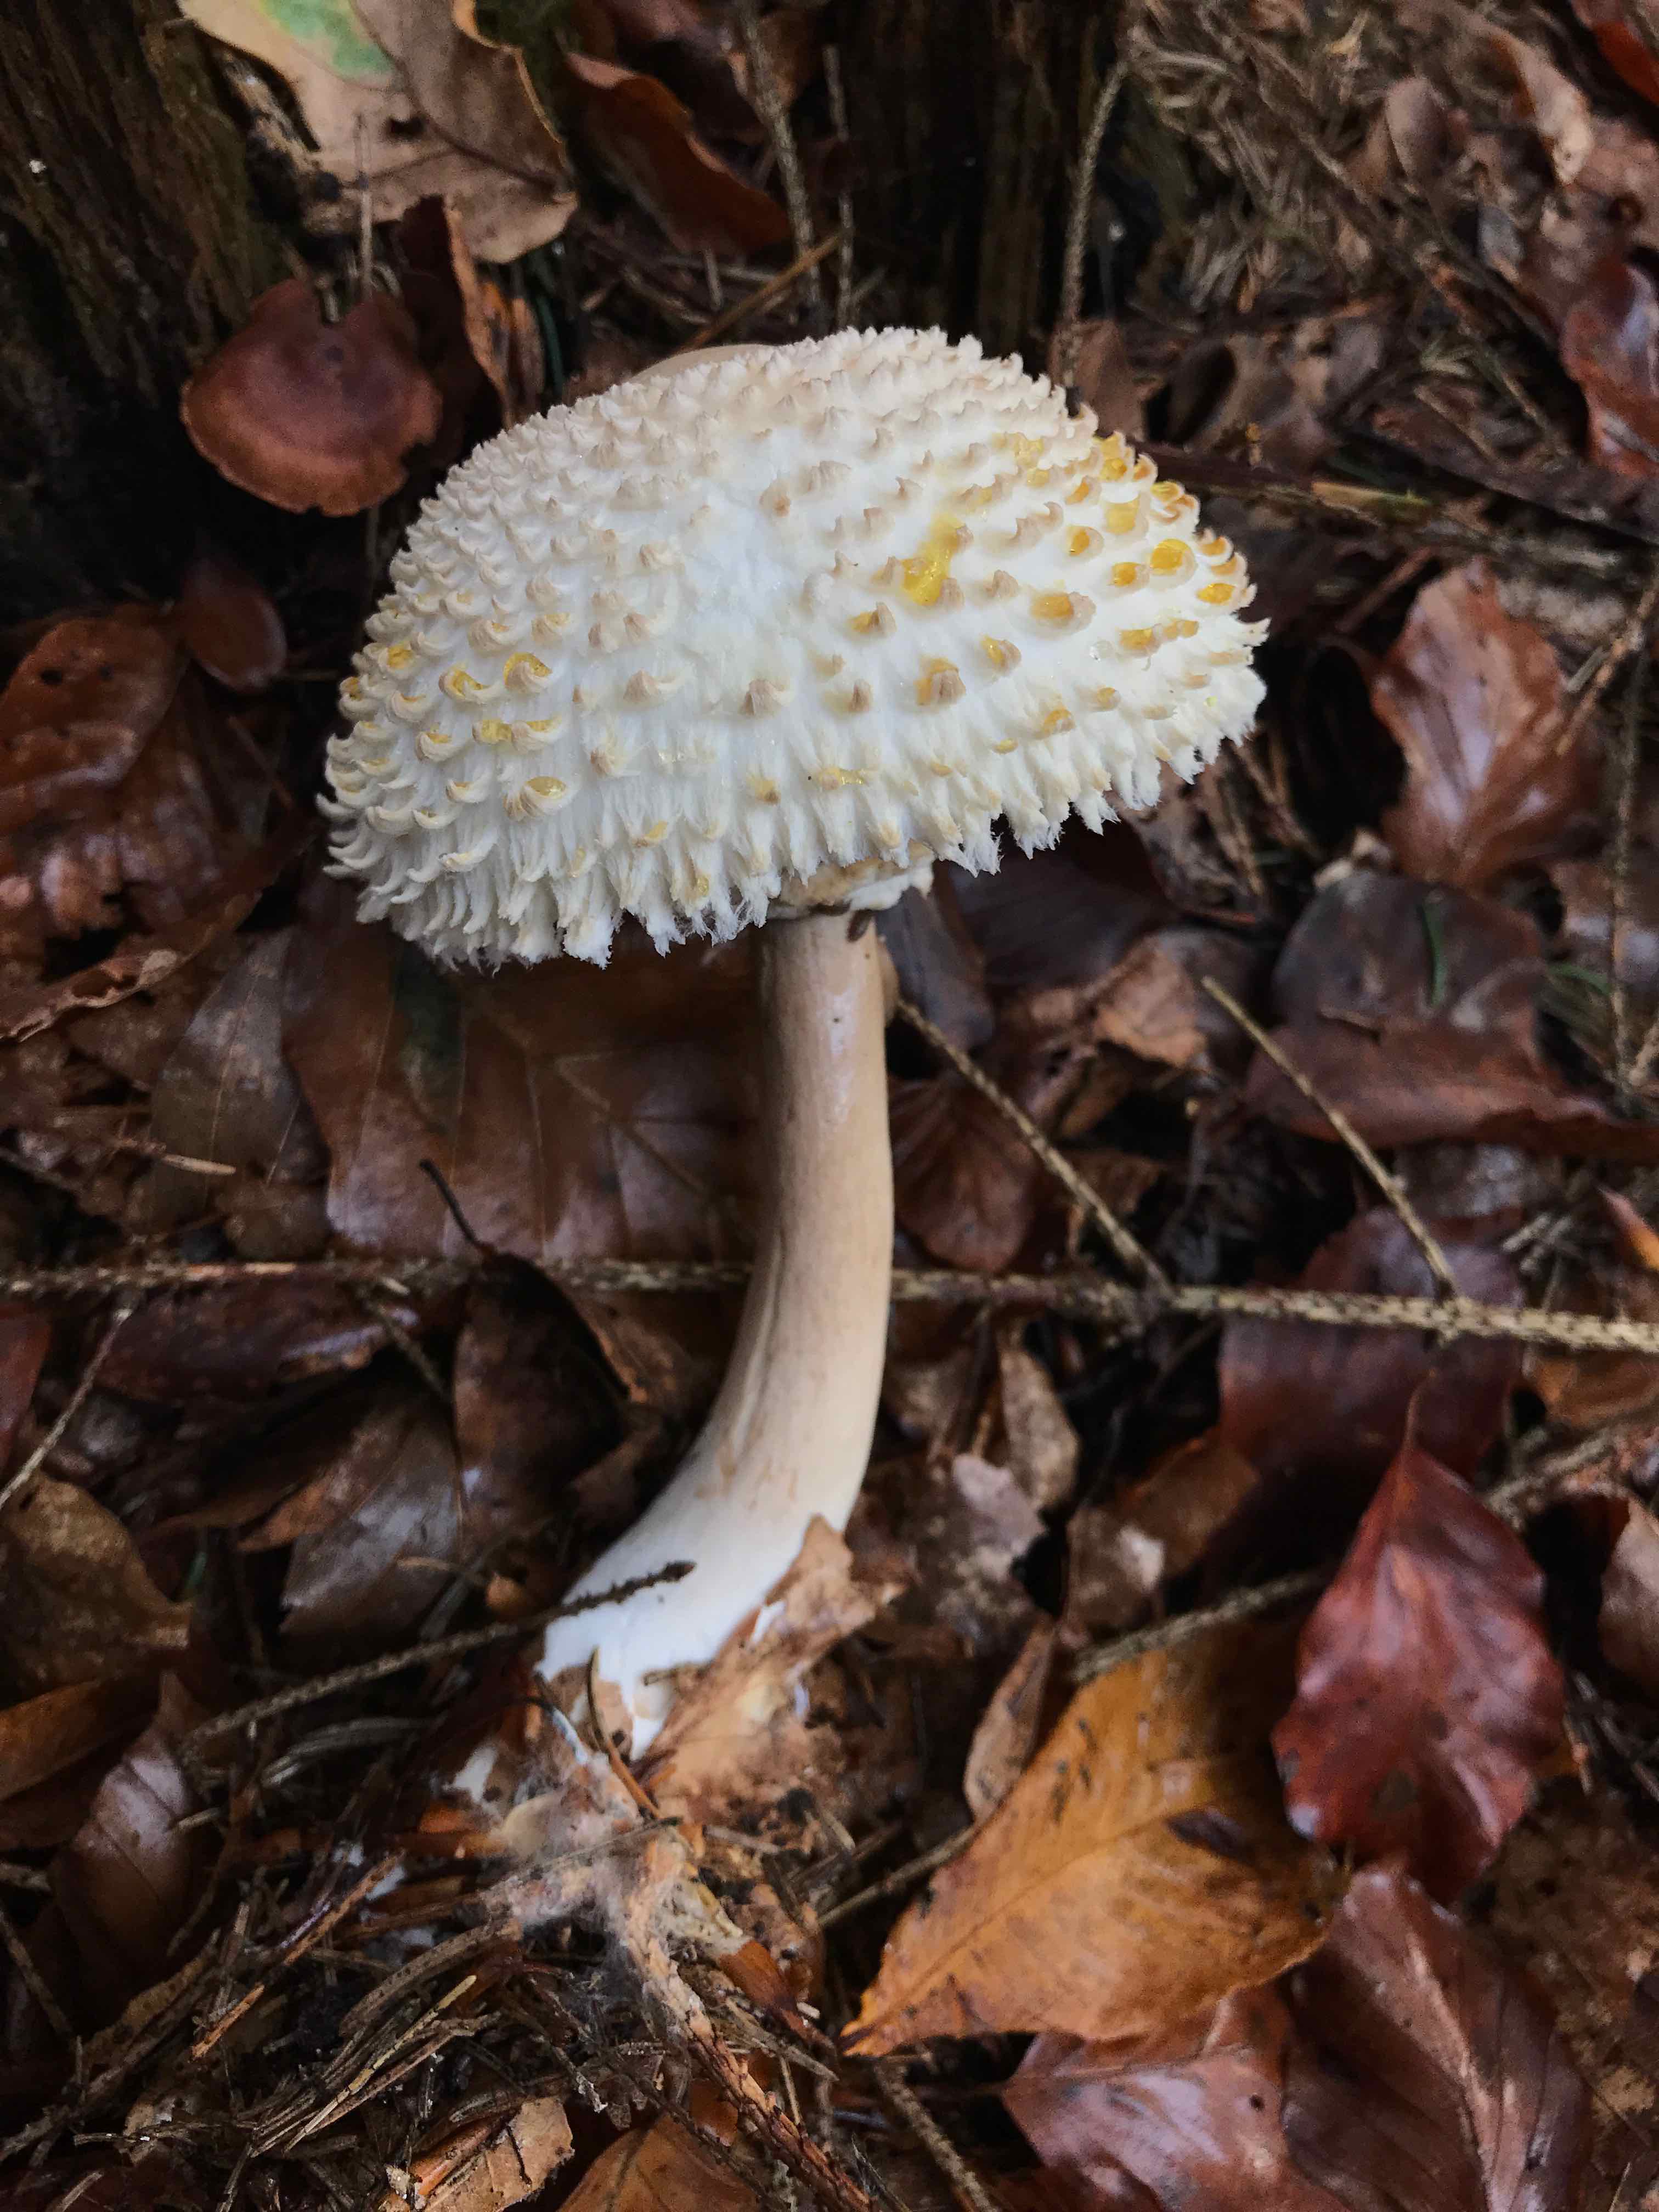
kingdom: Fungi
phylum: Basidiomycota
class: Agaricomycetes
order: Agaricales
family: Agaricaceae
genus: Leucoagaricus
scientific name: Leucoagaricus nympharum
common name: gran-silkehat
